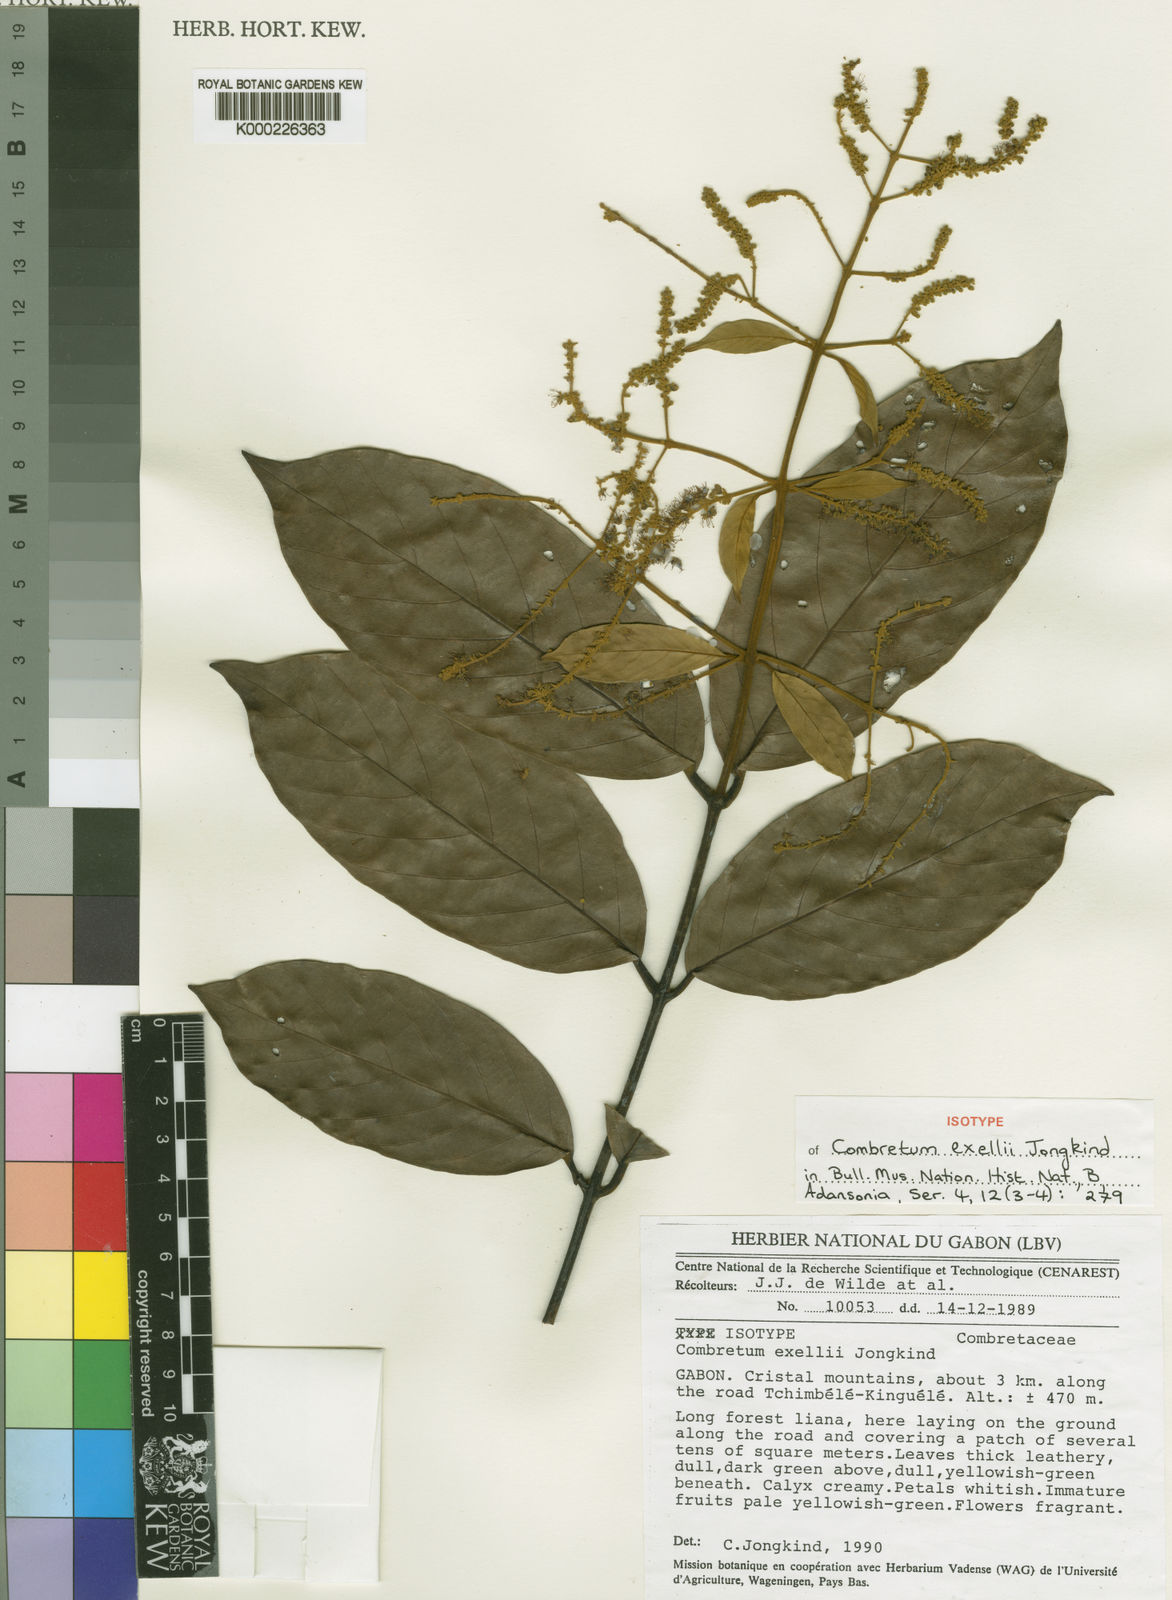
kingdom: Plantae
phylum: Tracheophyta
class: Magnoliopsida
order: Myrtales
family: Combretaceae
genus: Combretum
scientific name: Combretum exellii
